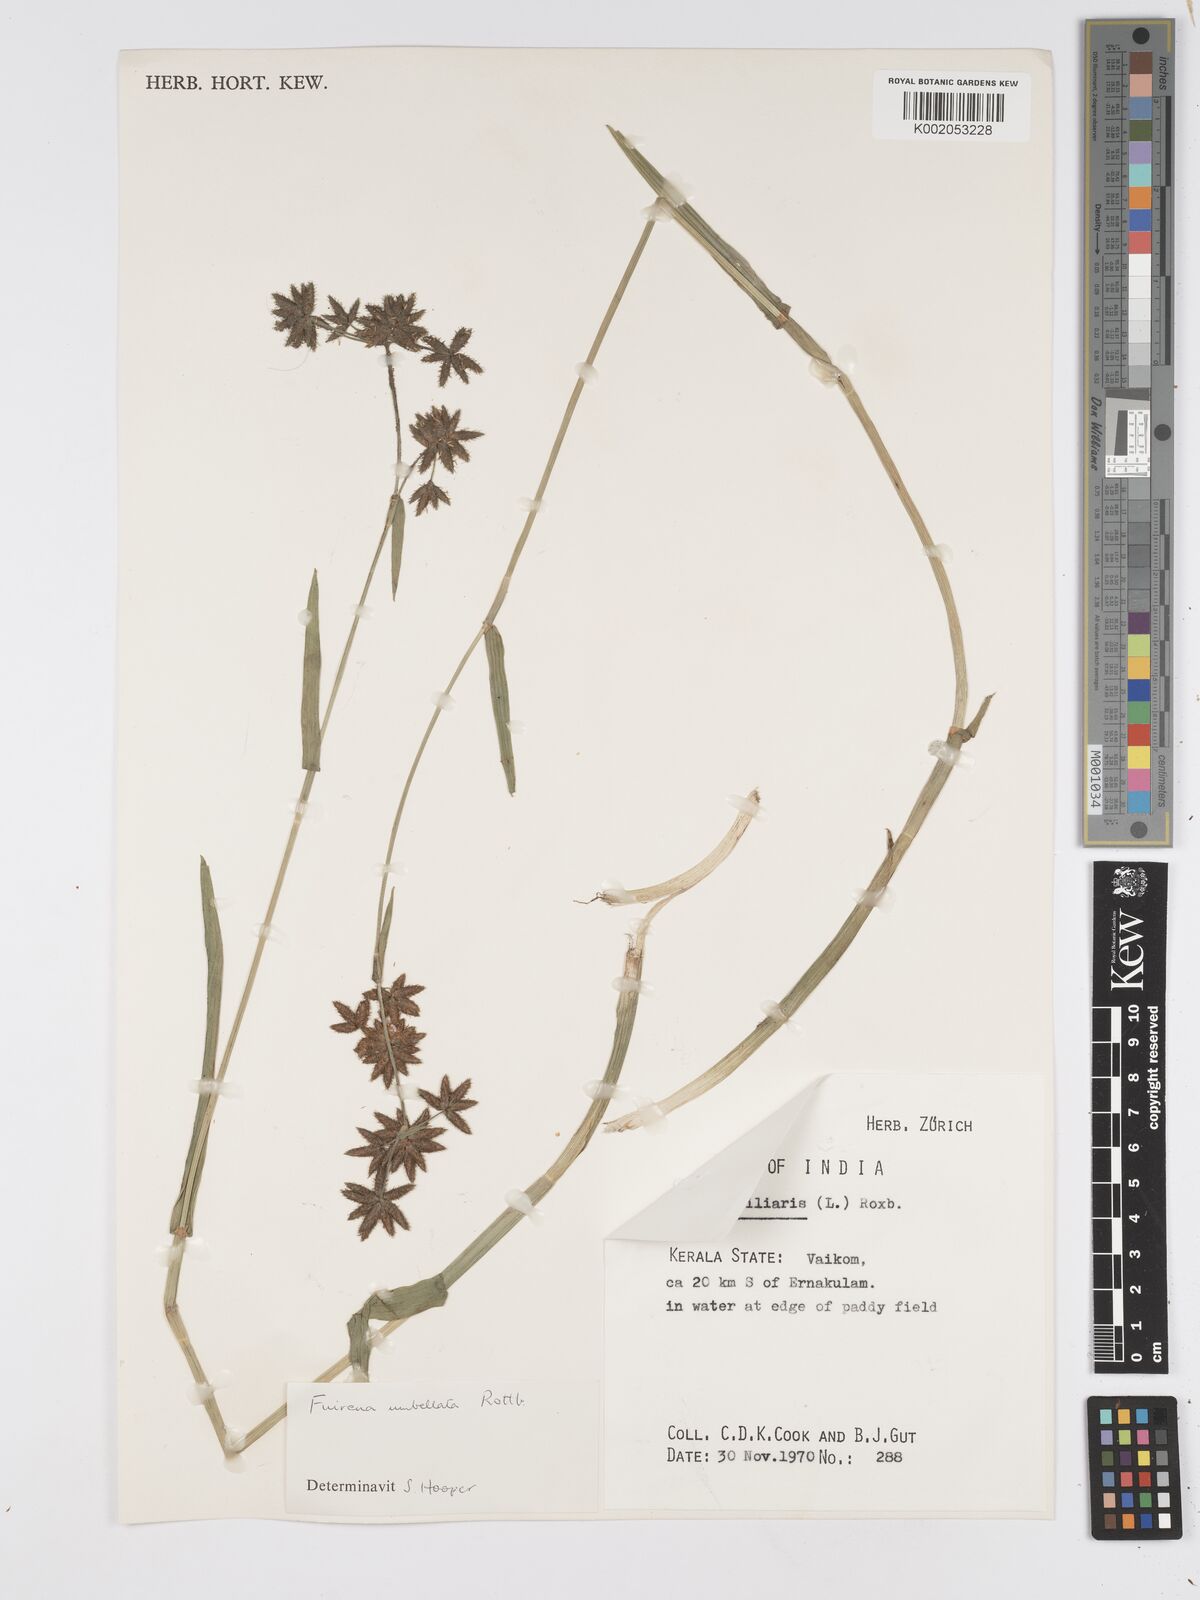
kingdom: Plantae
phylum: Tracheophyta
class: Liliopsida
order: Poales
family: Cyperaceae
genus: Fuirena
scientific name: Fuirena umbellata
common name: Yefen
